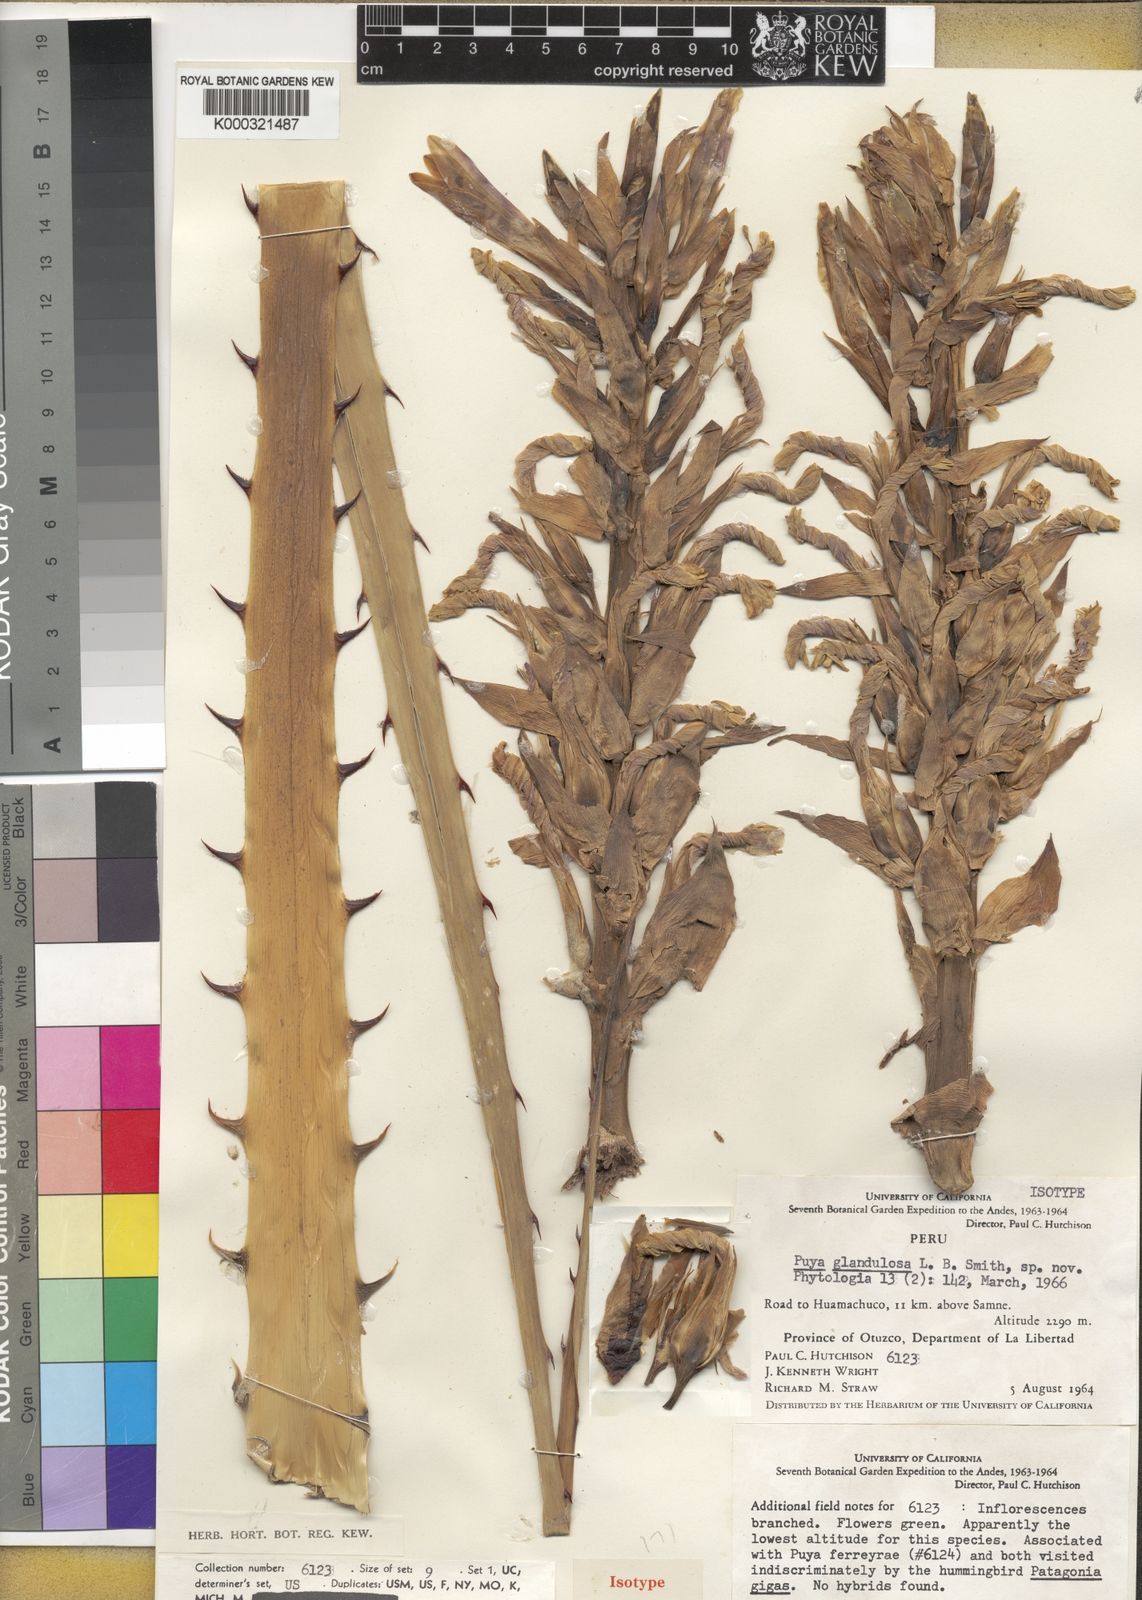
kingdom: Plantae
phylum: Tracheophyta
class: Liliopsida
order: Poales
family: Bromeliaceae
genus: Puya
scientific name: Puya glandulosa
